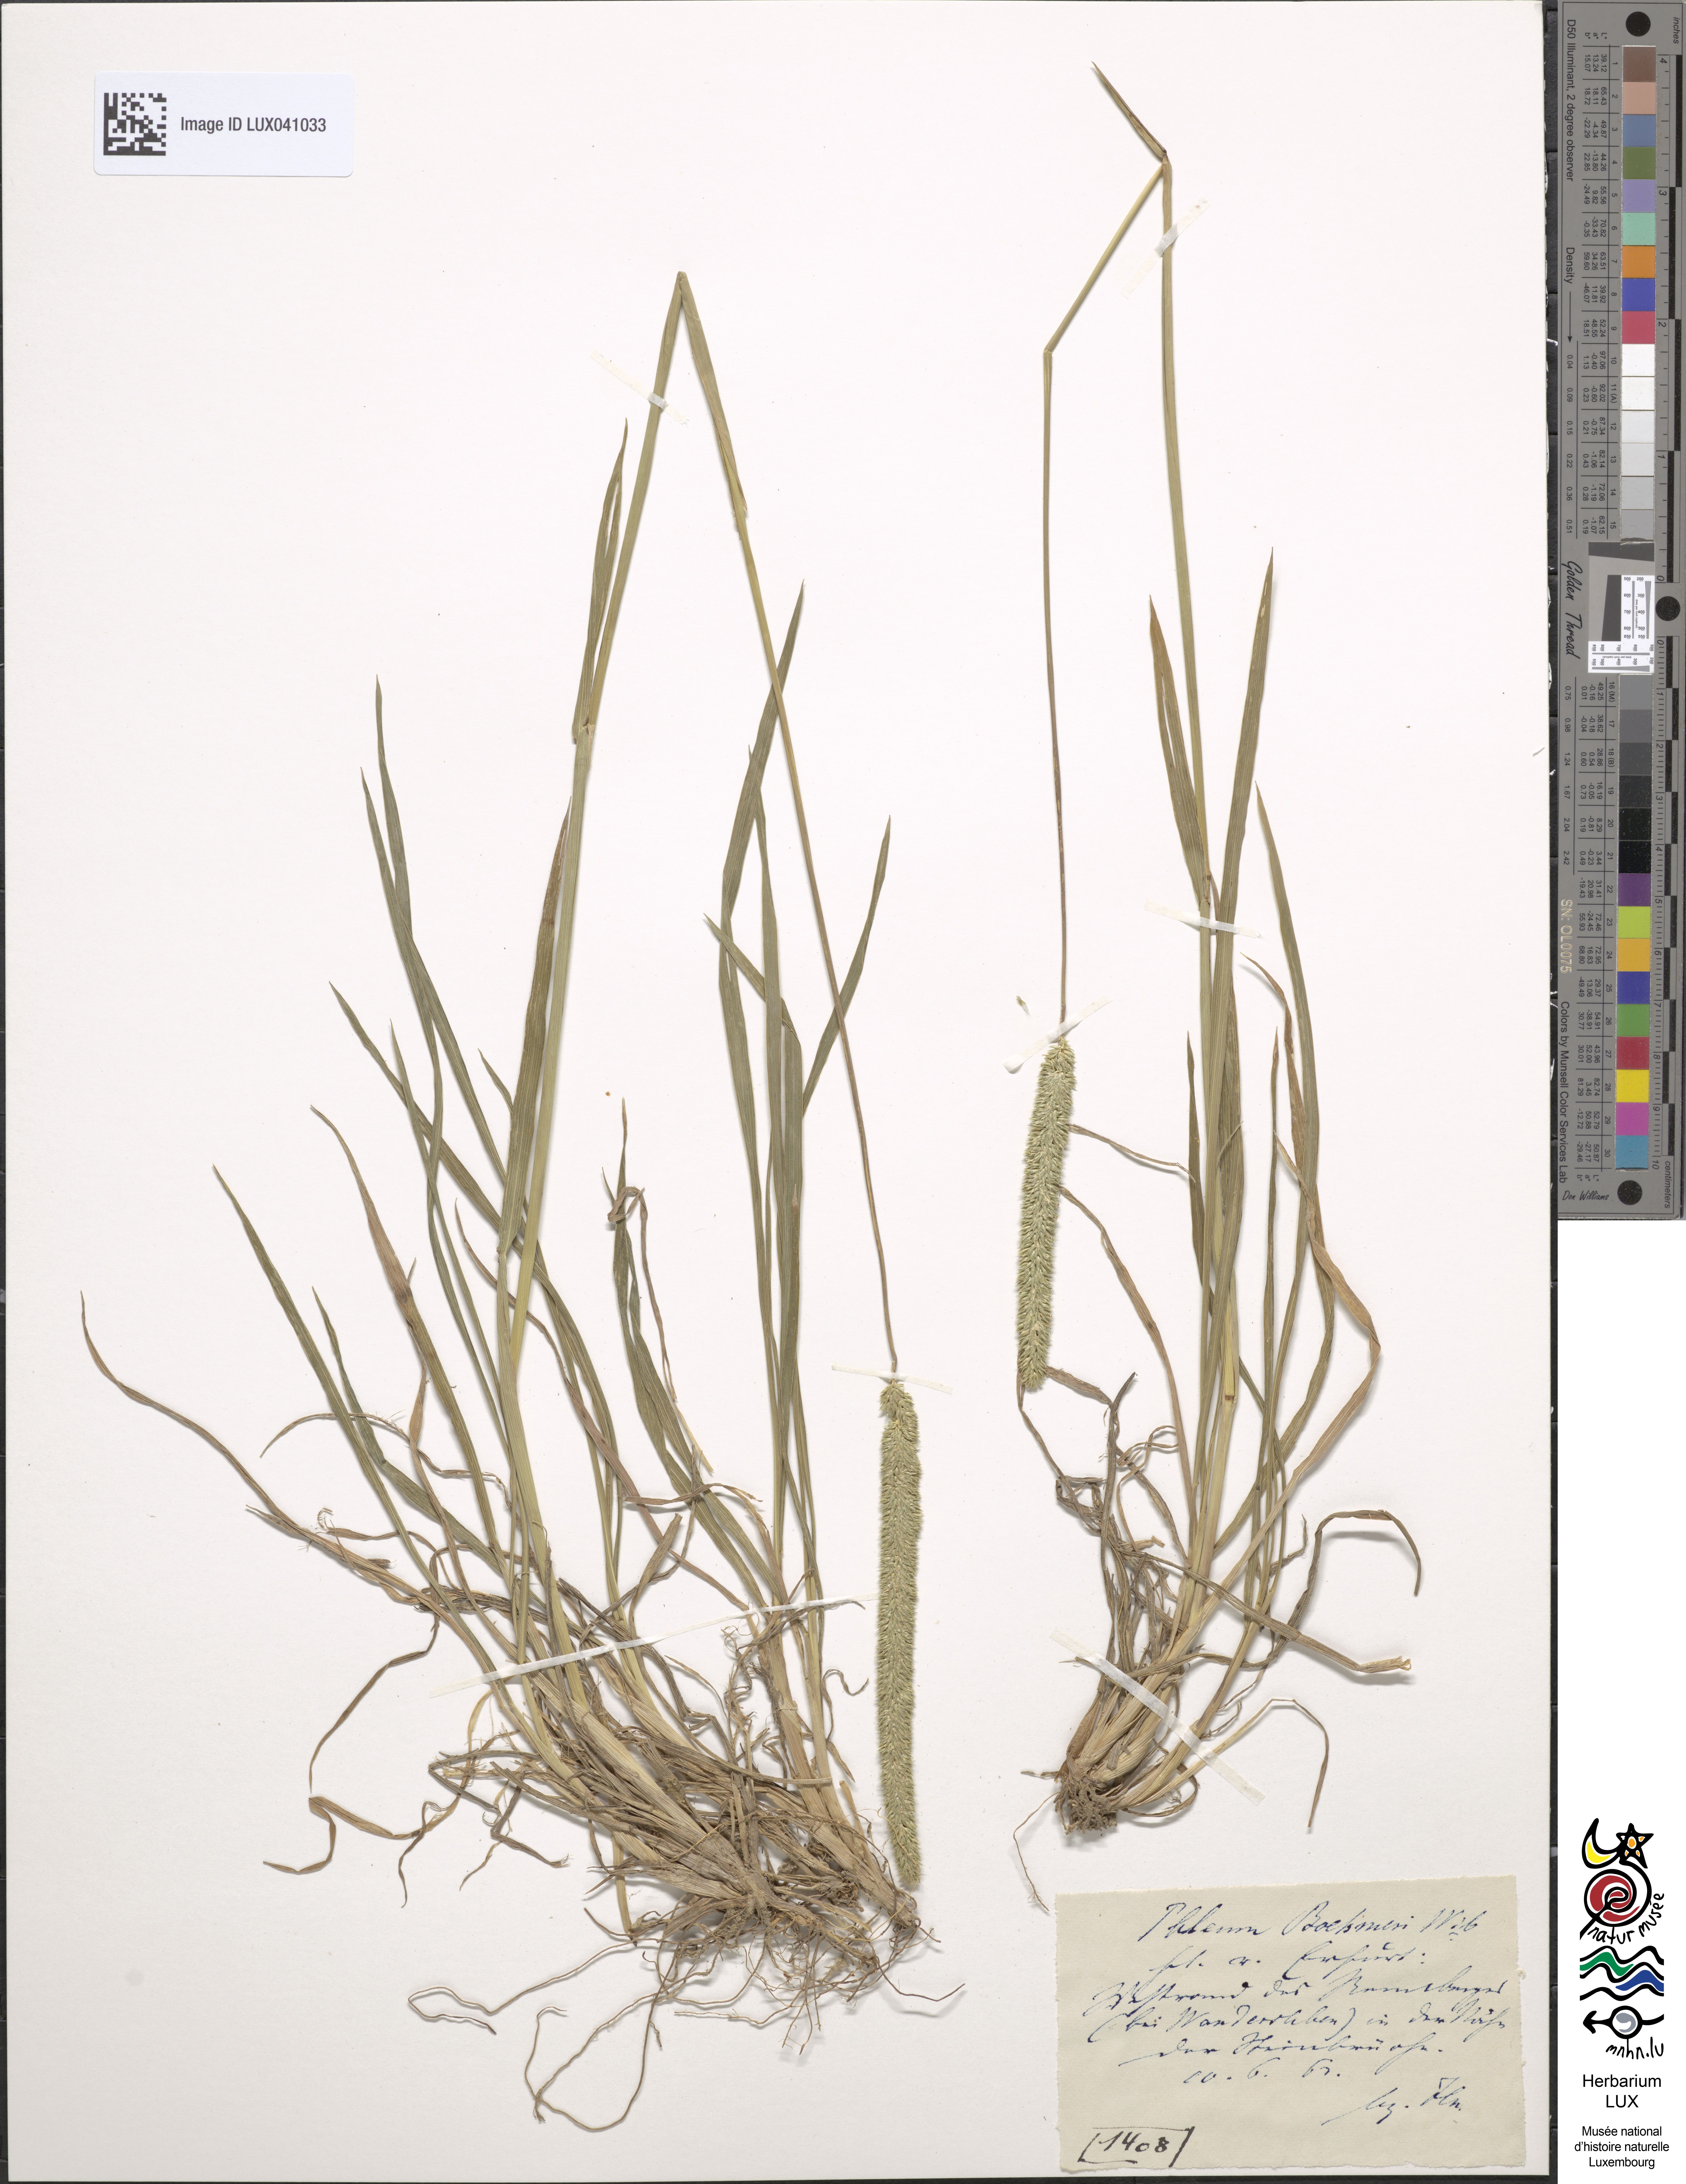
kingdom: Plantae
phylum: Tracheophyta
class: Liliopsida
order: Poales
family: Poaceae
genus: Phleum
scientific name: Phleum phleoides
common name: Purple-stem cat's-tail
